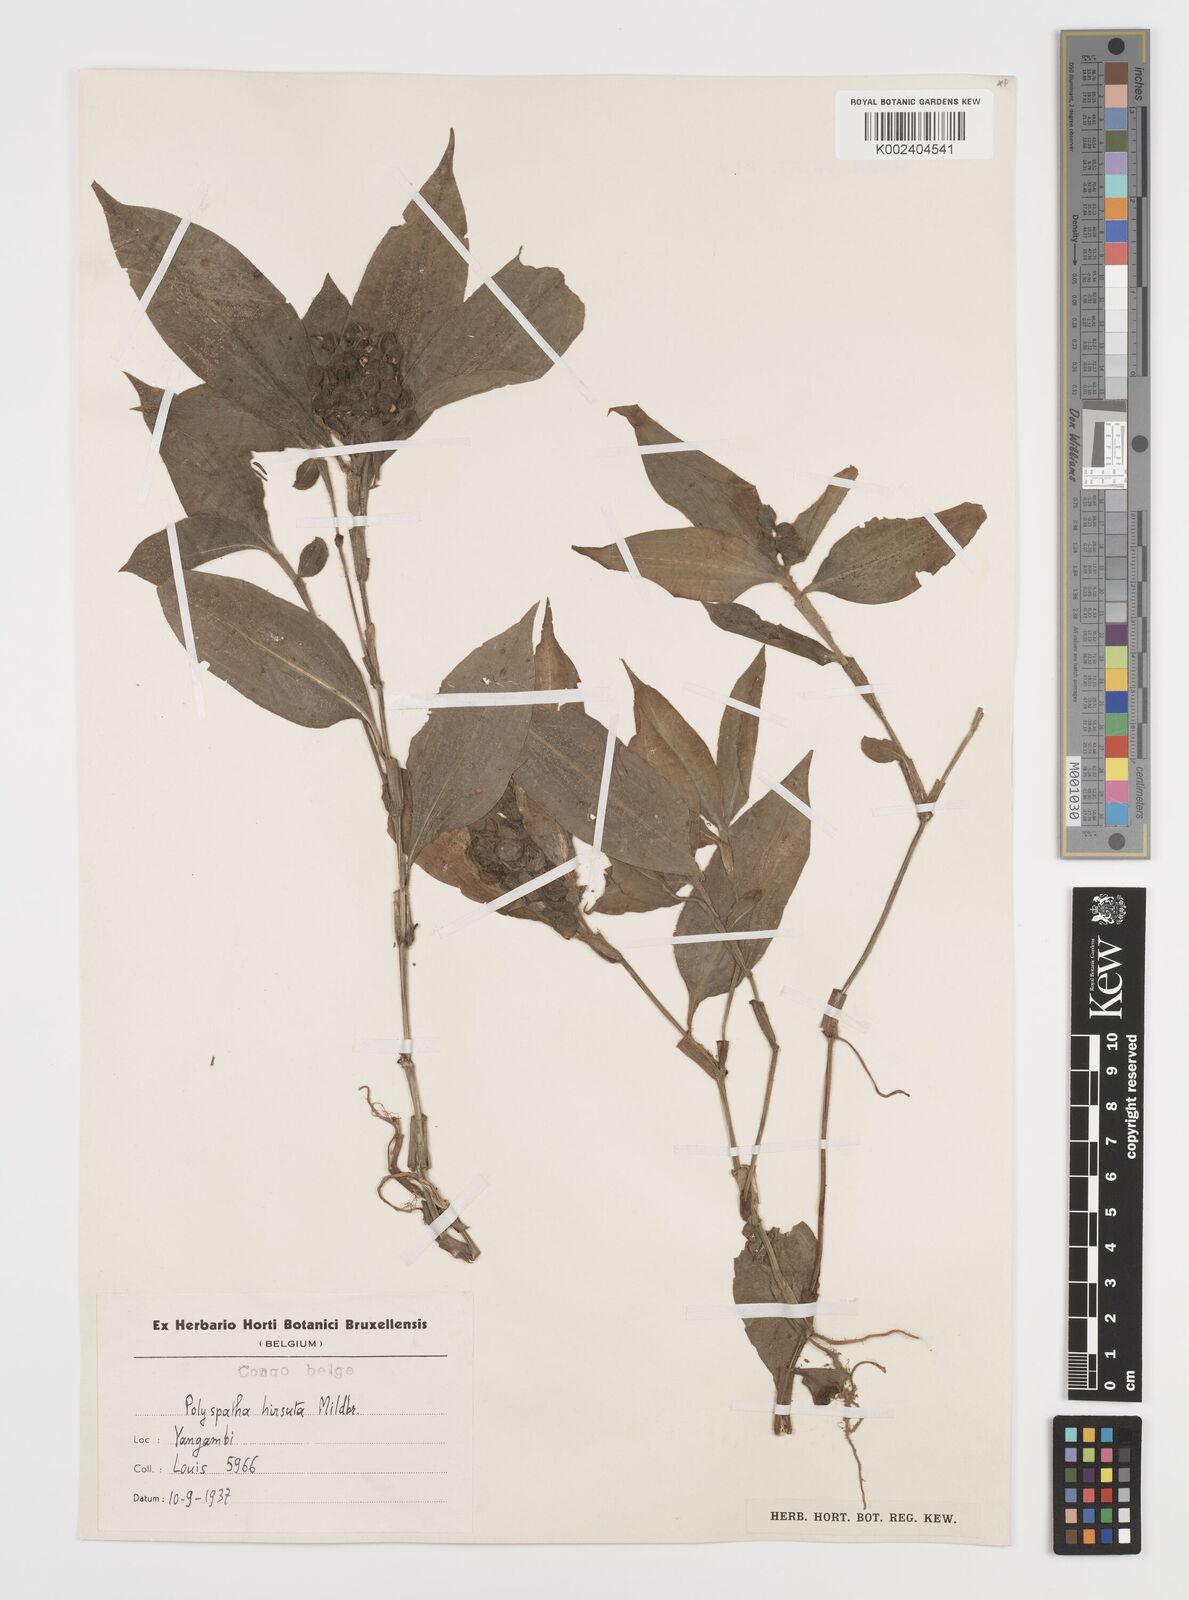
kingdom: Plantae
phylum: Tracheophyta
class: Liliopsida
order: Commelinales
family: Commelinaceae
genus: Polyspatha
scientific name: Polyspatha hirsuta
